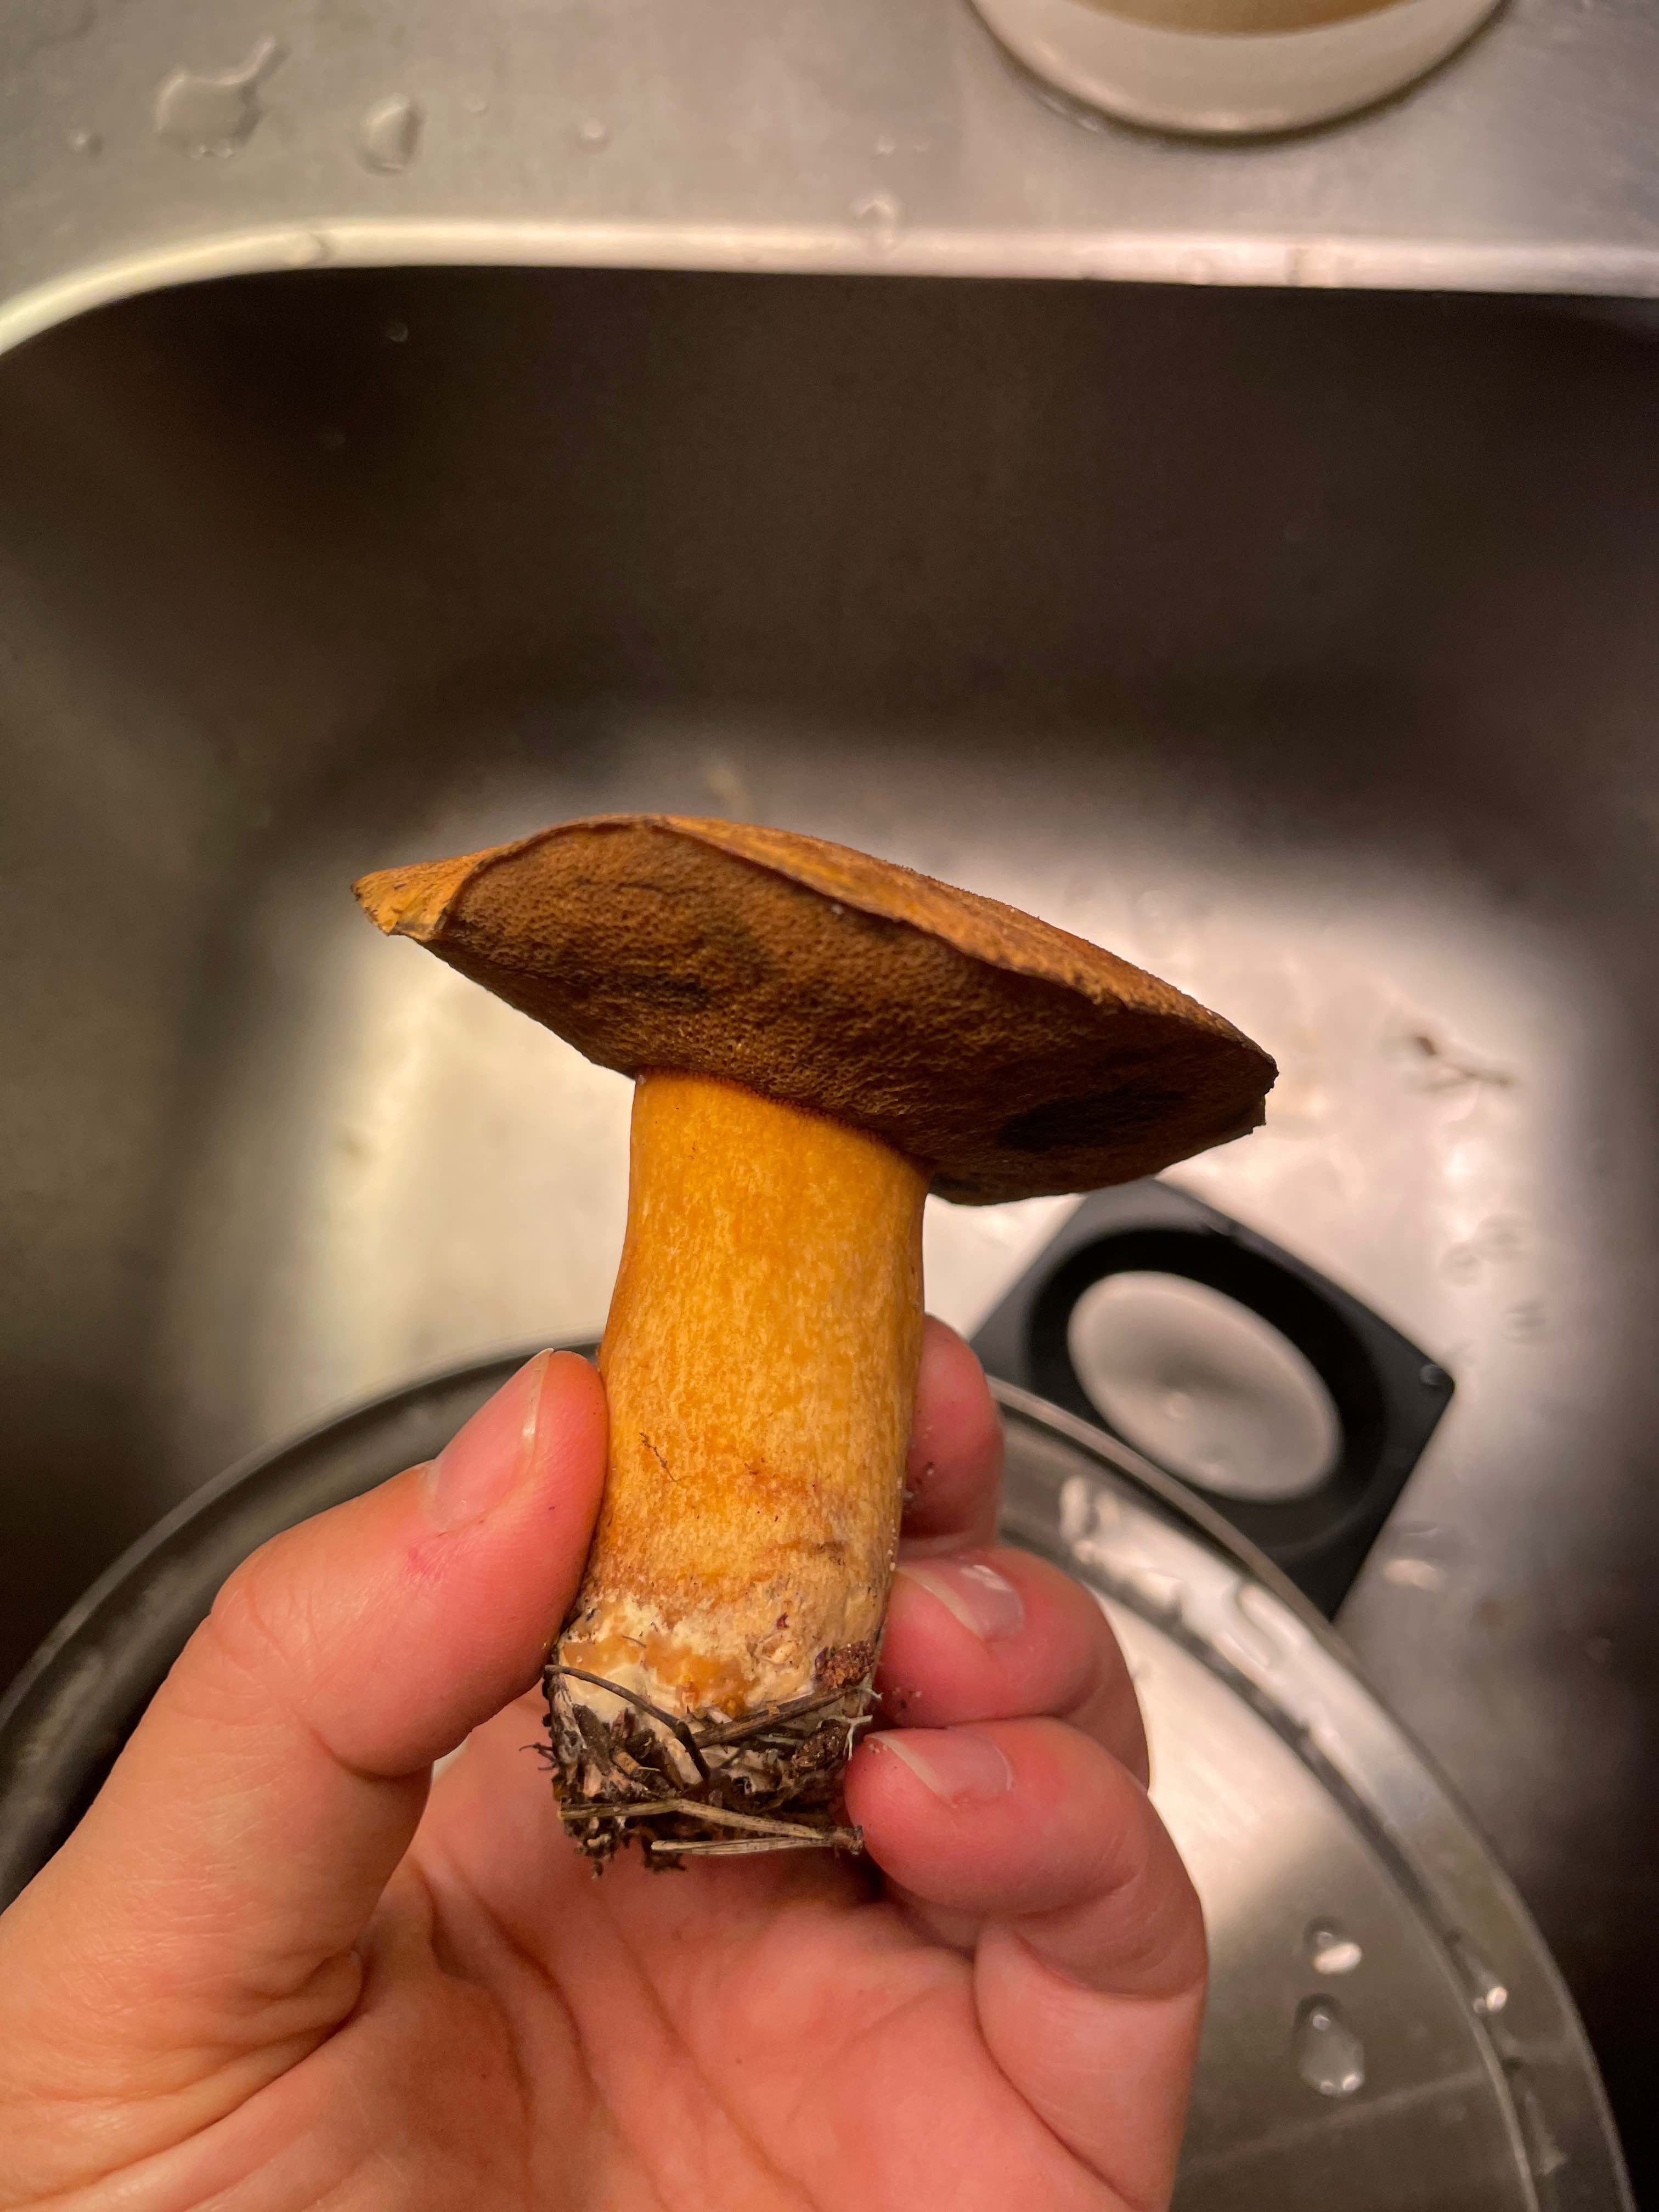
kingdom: Fungi
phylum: Basidiomycota
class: Agaricomycetes
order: Boletales
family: Suillaceae
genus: Suillus
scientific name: Suillus variegatus
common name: broget slimrørhat
